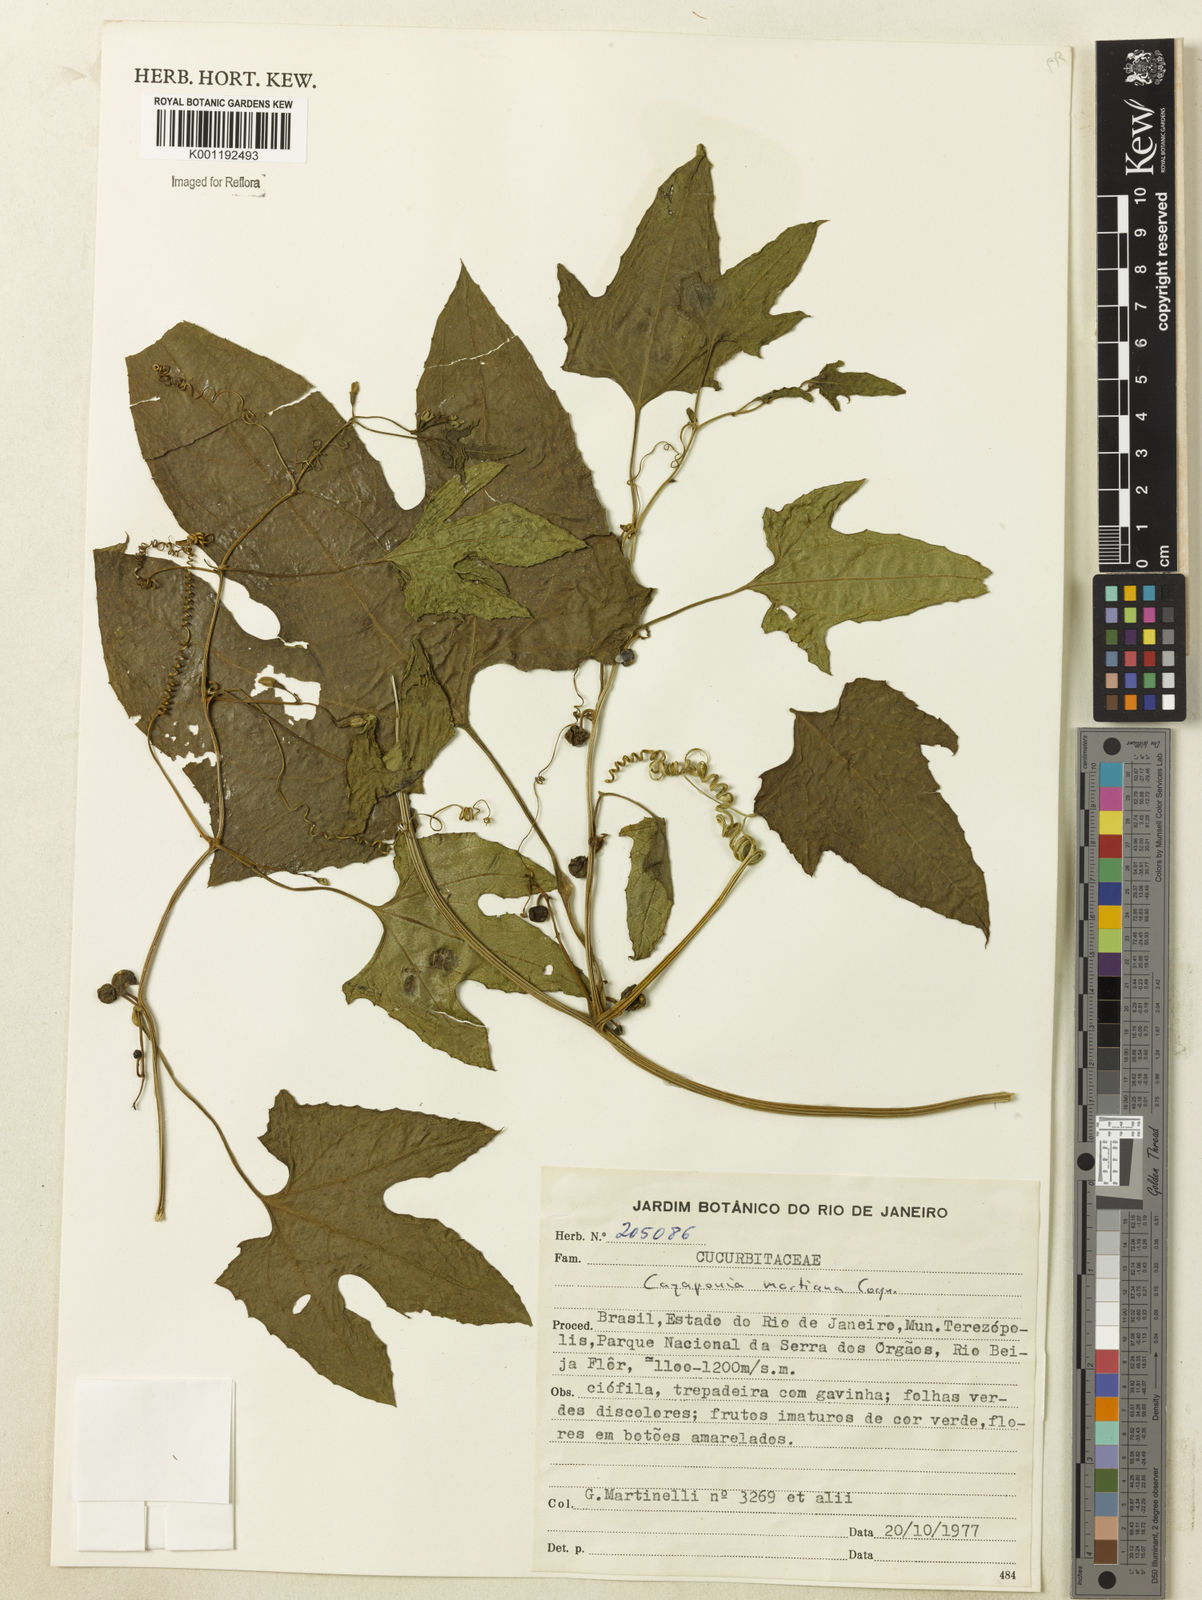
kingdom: Plantae
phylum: Tracheophyta
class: Magnoliopsida
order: Cucurbitales
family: Cucurbitaceae
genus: Cayaponia
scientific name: Cayaponia martiana
